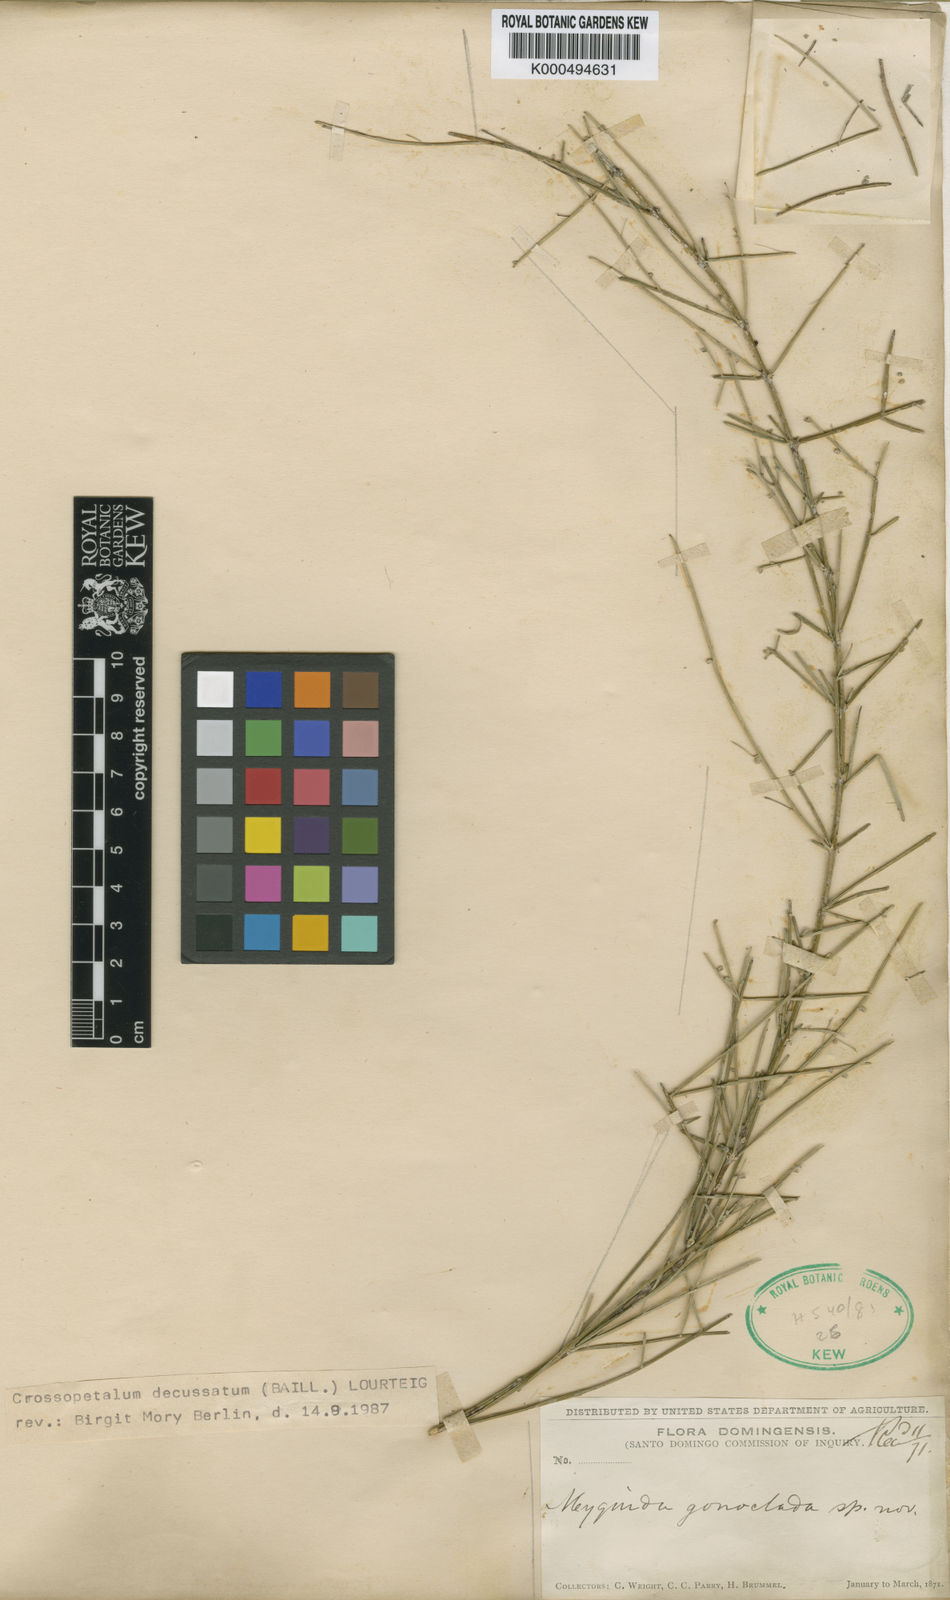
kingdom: Plantae
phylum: Tracheophyta
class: Magnoliopsida
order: Celastrales
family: Celastraceae
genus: Crossopetalum
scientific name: Crossopetalum decussatum
